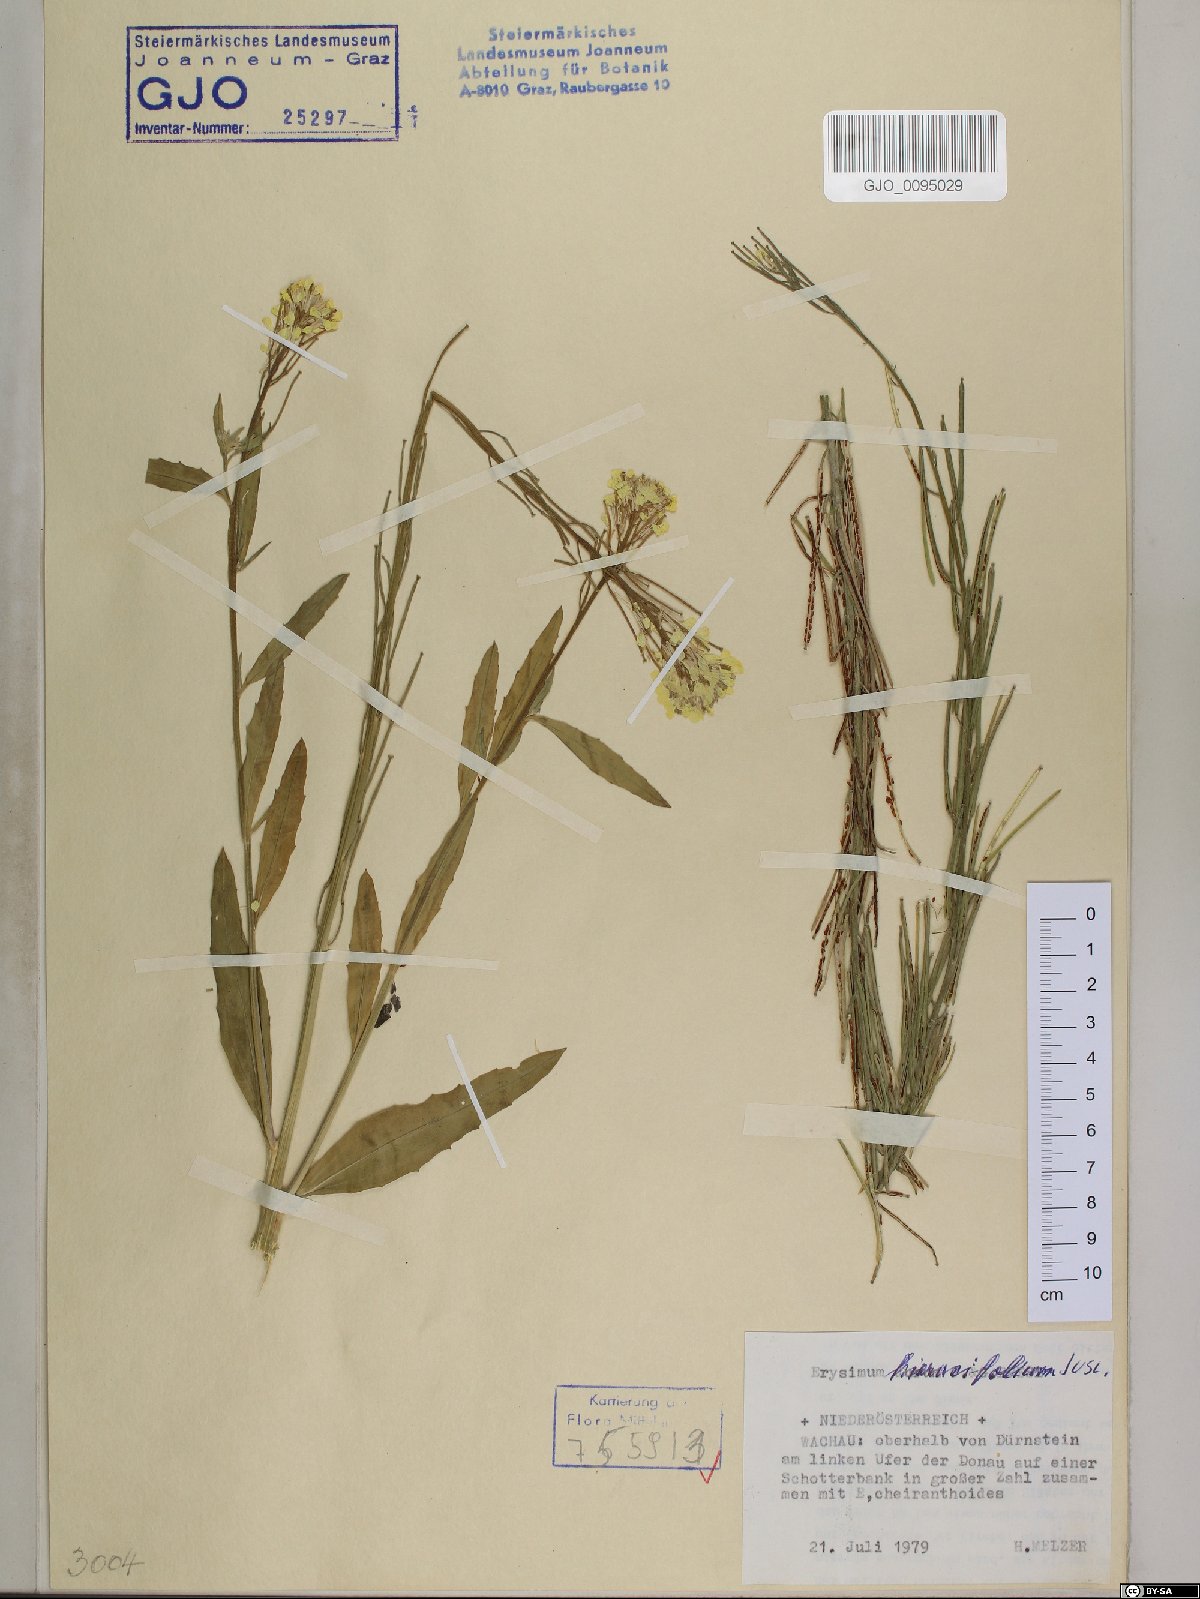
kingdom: Plantae
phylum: Tracheophyta
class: Magnoliopsida
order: Brassicales
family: Brassicaceae
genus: Erysimum
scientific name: Erysimum hieraciifolium
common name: European wallflower
